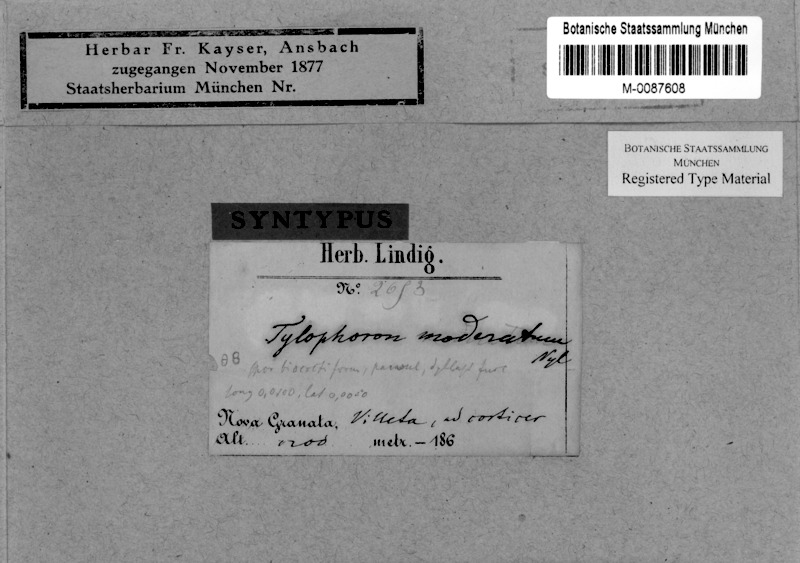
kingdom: Fungi
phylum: Ascomycota
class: Arthoniomycetes
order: Arthoniales
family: Arthoniaceae
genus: Tylophoron
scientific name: Tylophoron moderatum
